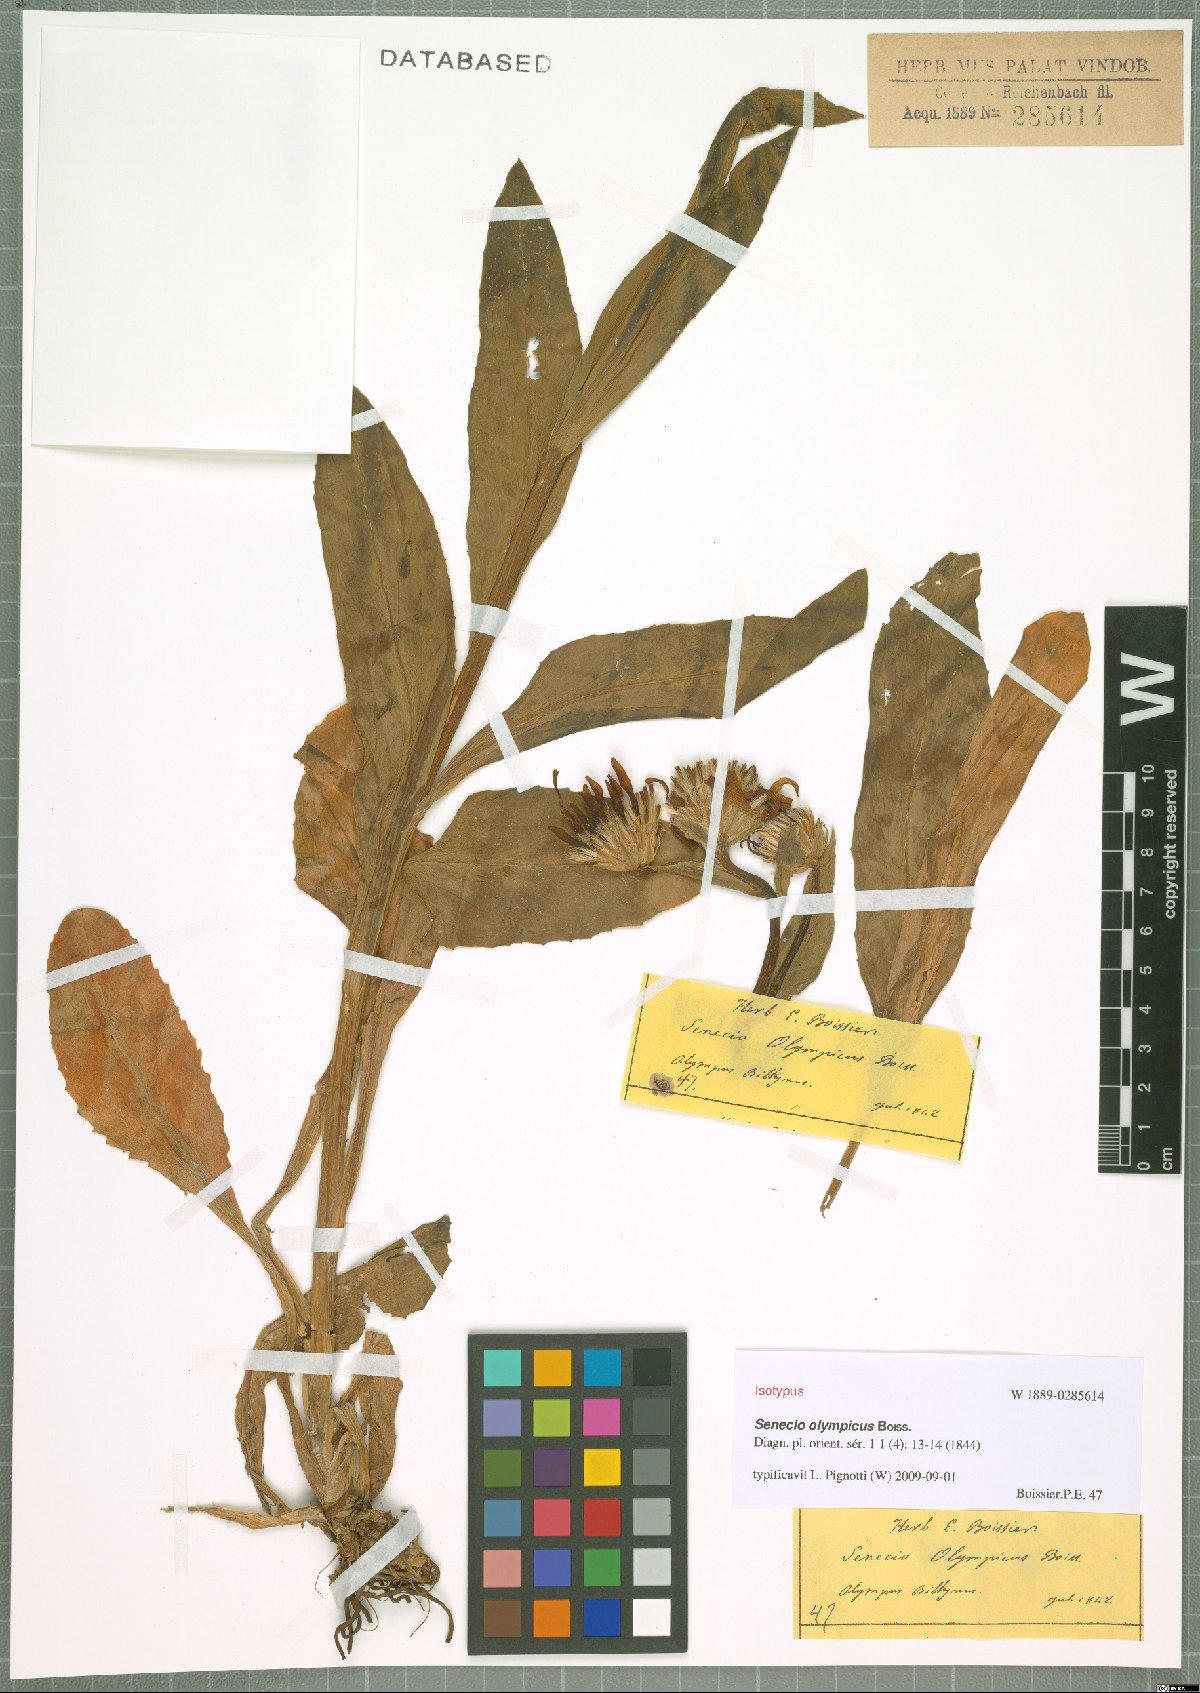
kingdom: Plantae
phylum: Tracheophyta
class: Magnoliopsida
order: Asterales
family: Asteraceae
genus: Senecio
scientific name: Senecio olympicus
